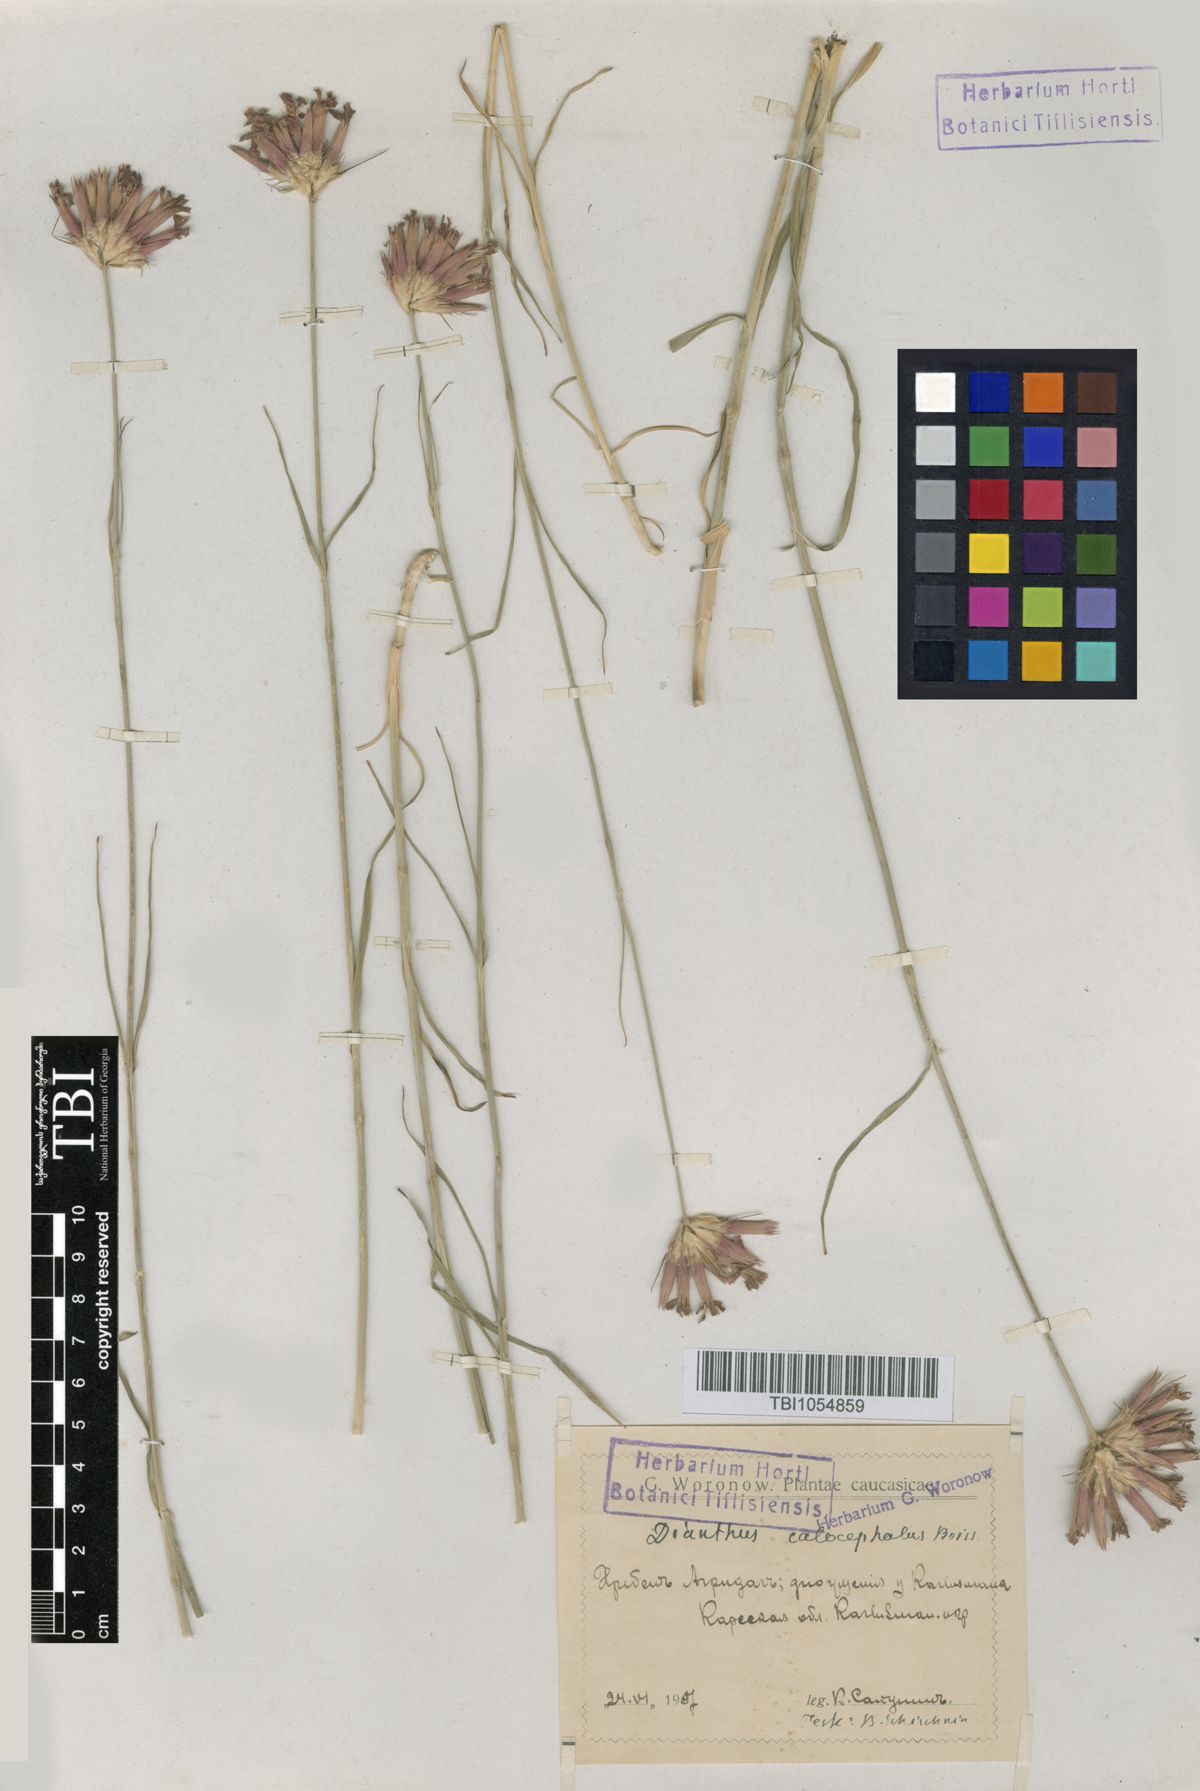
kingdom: Plantae
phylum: Tracheophyta
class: Magnoliopsida
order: Caryophyllales
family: Caryophyllaceae
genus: Dianthus
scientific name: Dianthus cruentus
